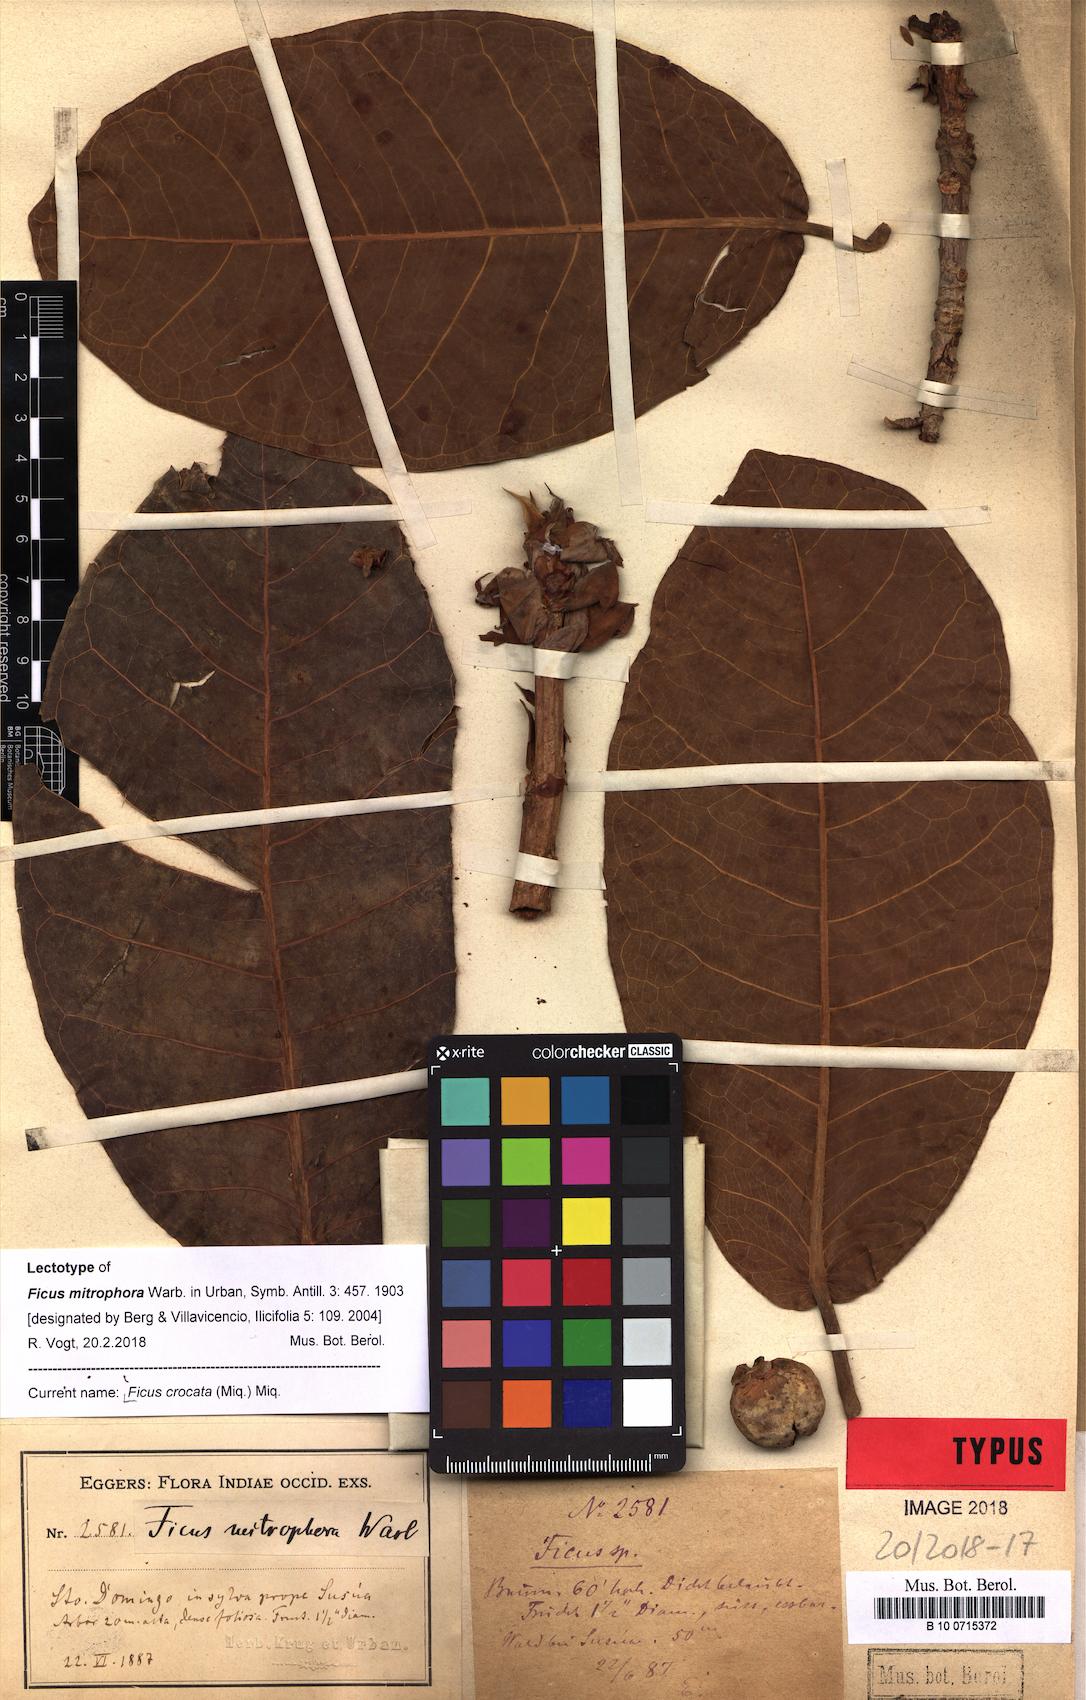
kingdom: Plantae
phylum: Tracheophyta
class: Magnoliopsida
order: Rosales
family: Moraceae
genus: Ficus
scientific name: Ficus crocata
